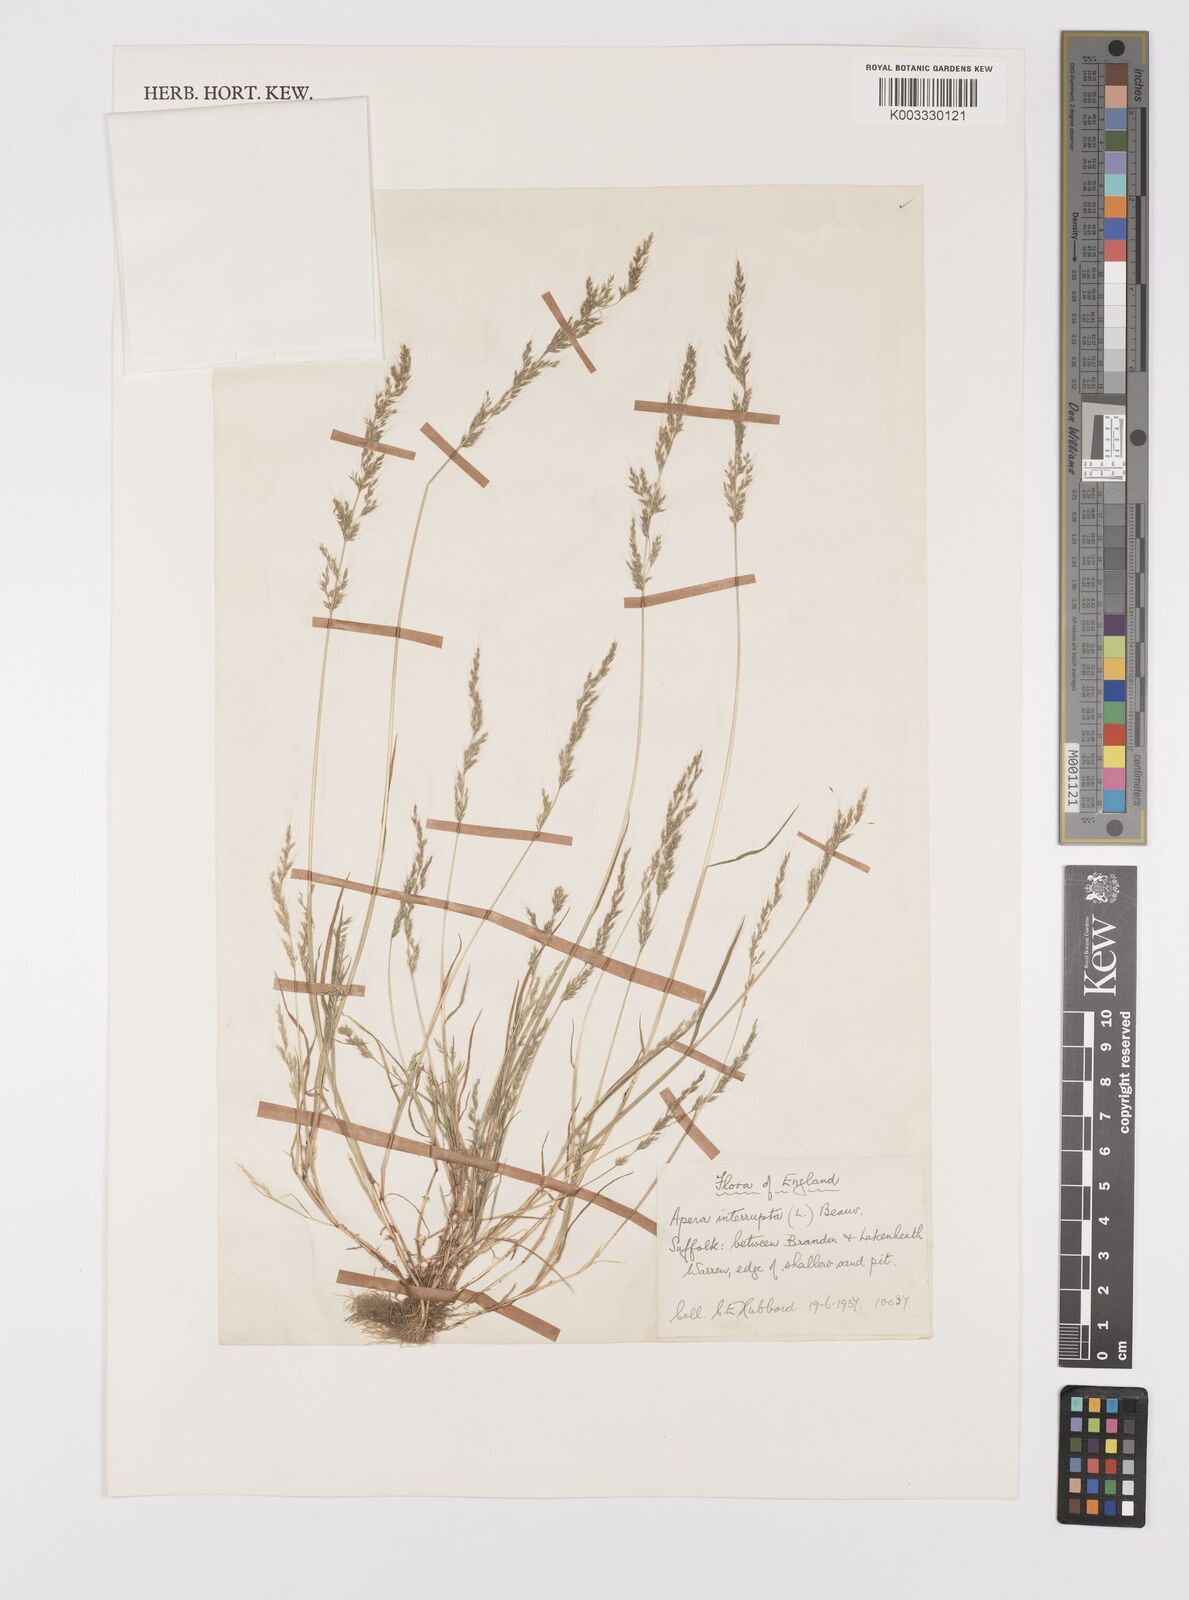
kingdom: Plantae
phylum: Tracheophyta
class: Liliopsida
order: Poales
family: Poaceae
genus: Apera
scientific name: Apera interrupta
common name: Dense silky-bent
